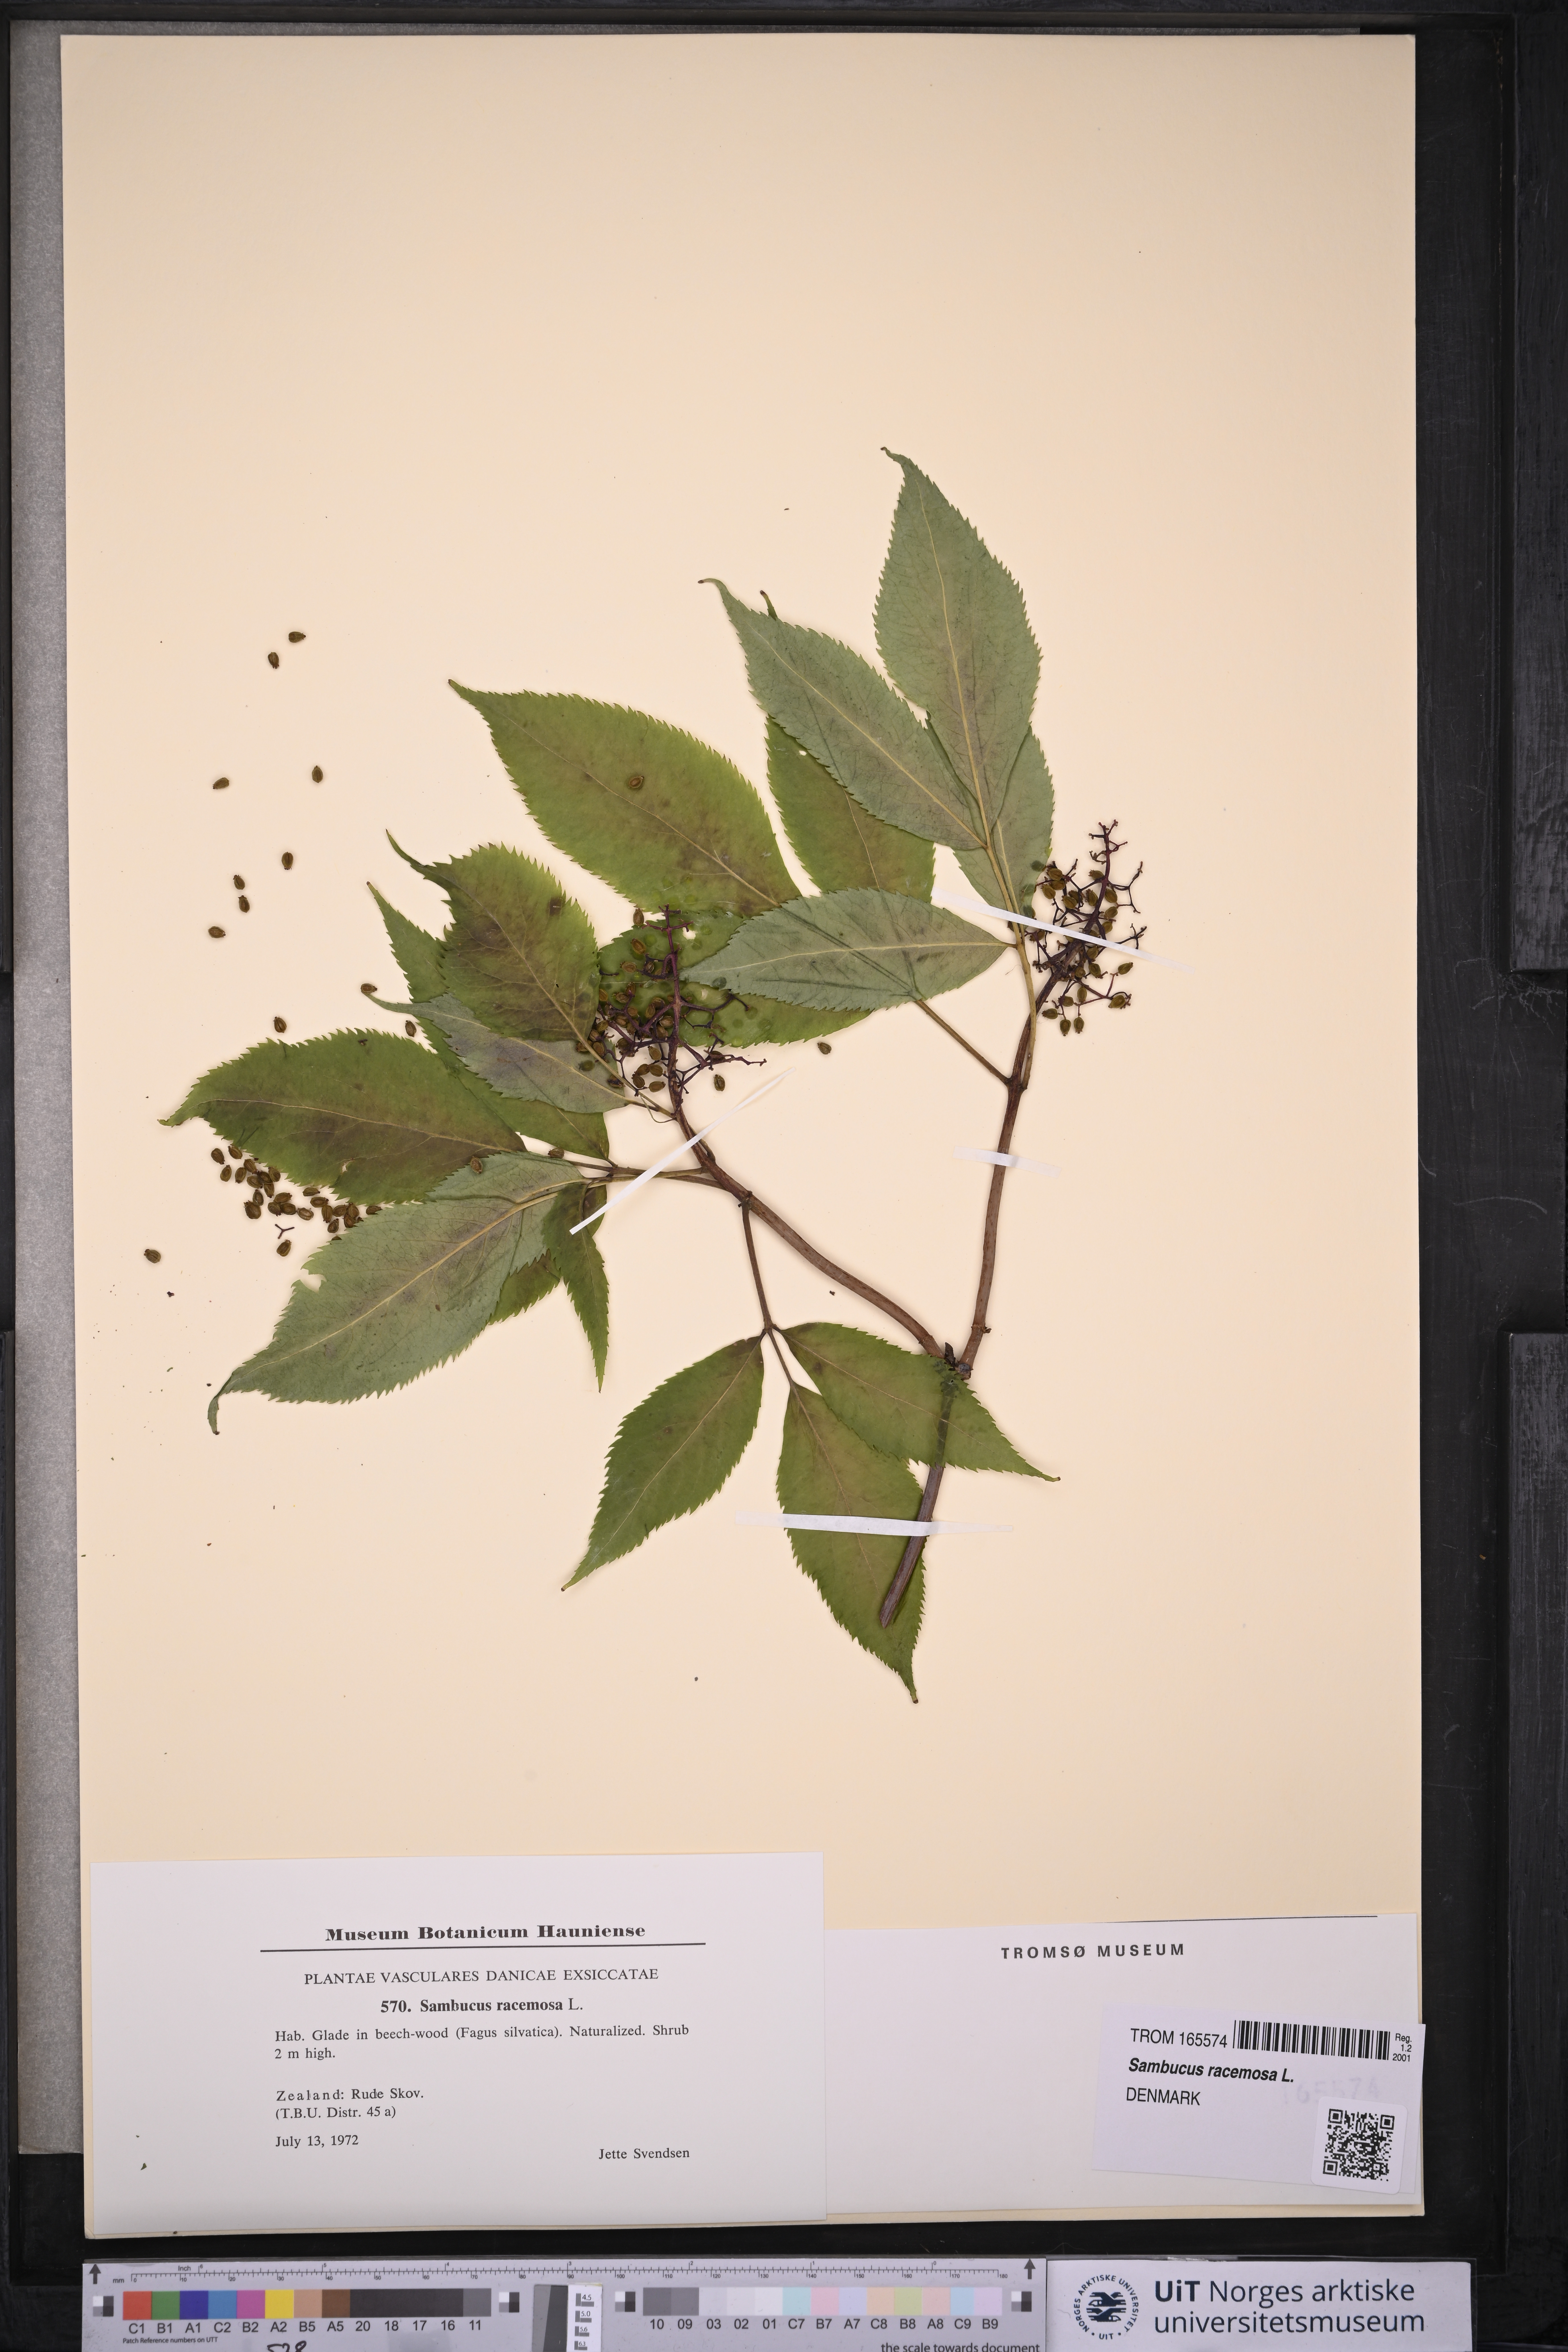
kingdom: Plantae
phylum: Tracheophyta
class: Magnoliopsida
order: Dipsacales
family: Viburnaceae
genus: Sambucus
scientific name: Sambucus racemosa
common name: Red-berried elder
